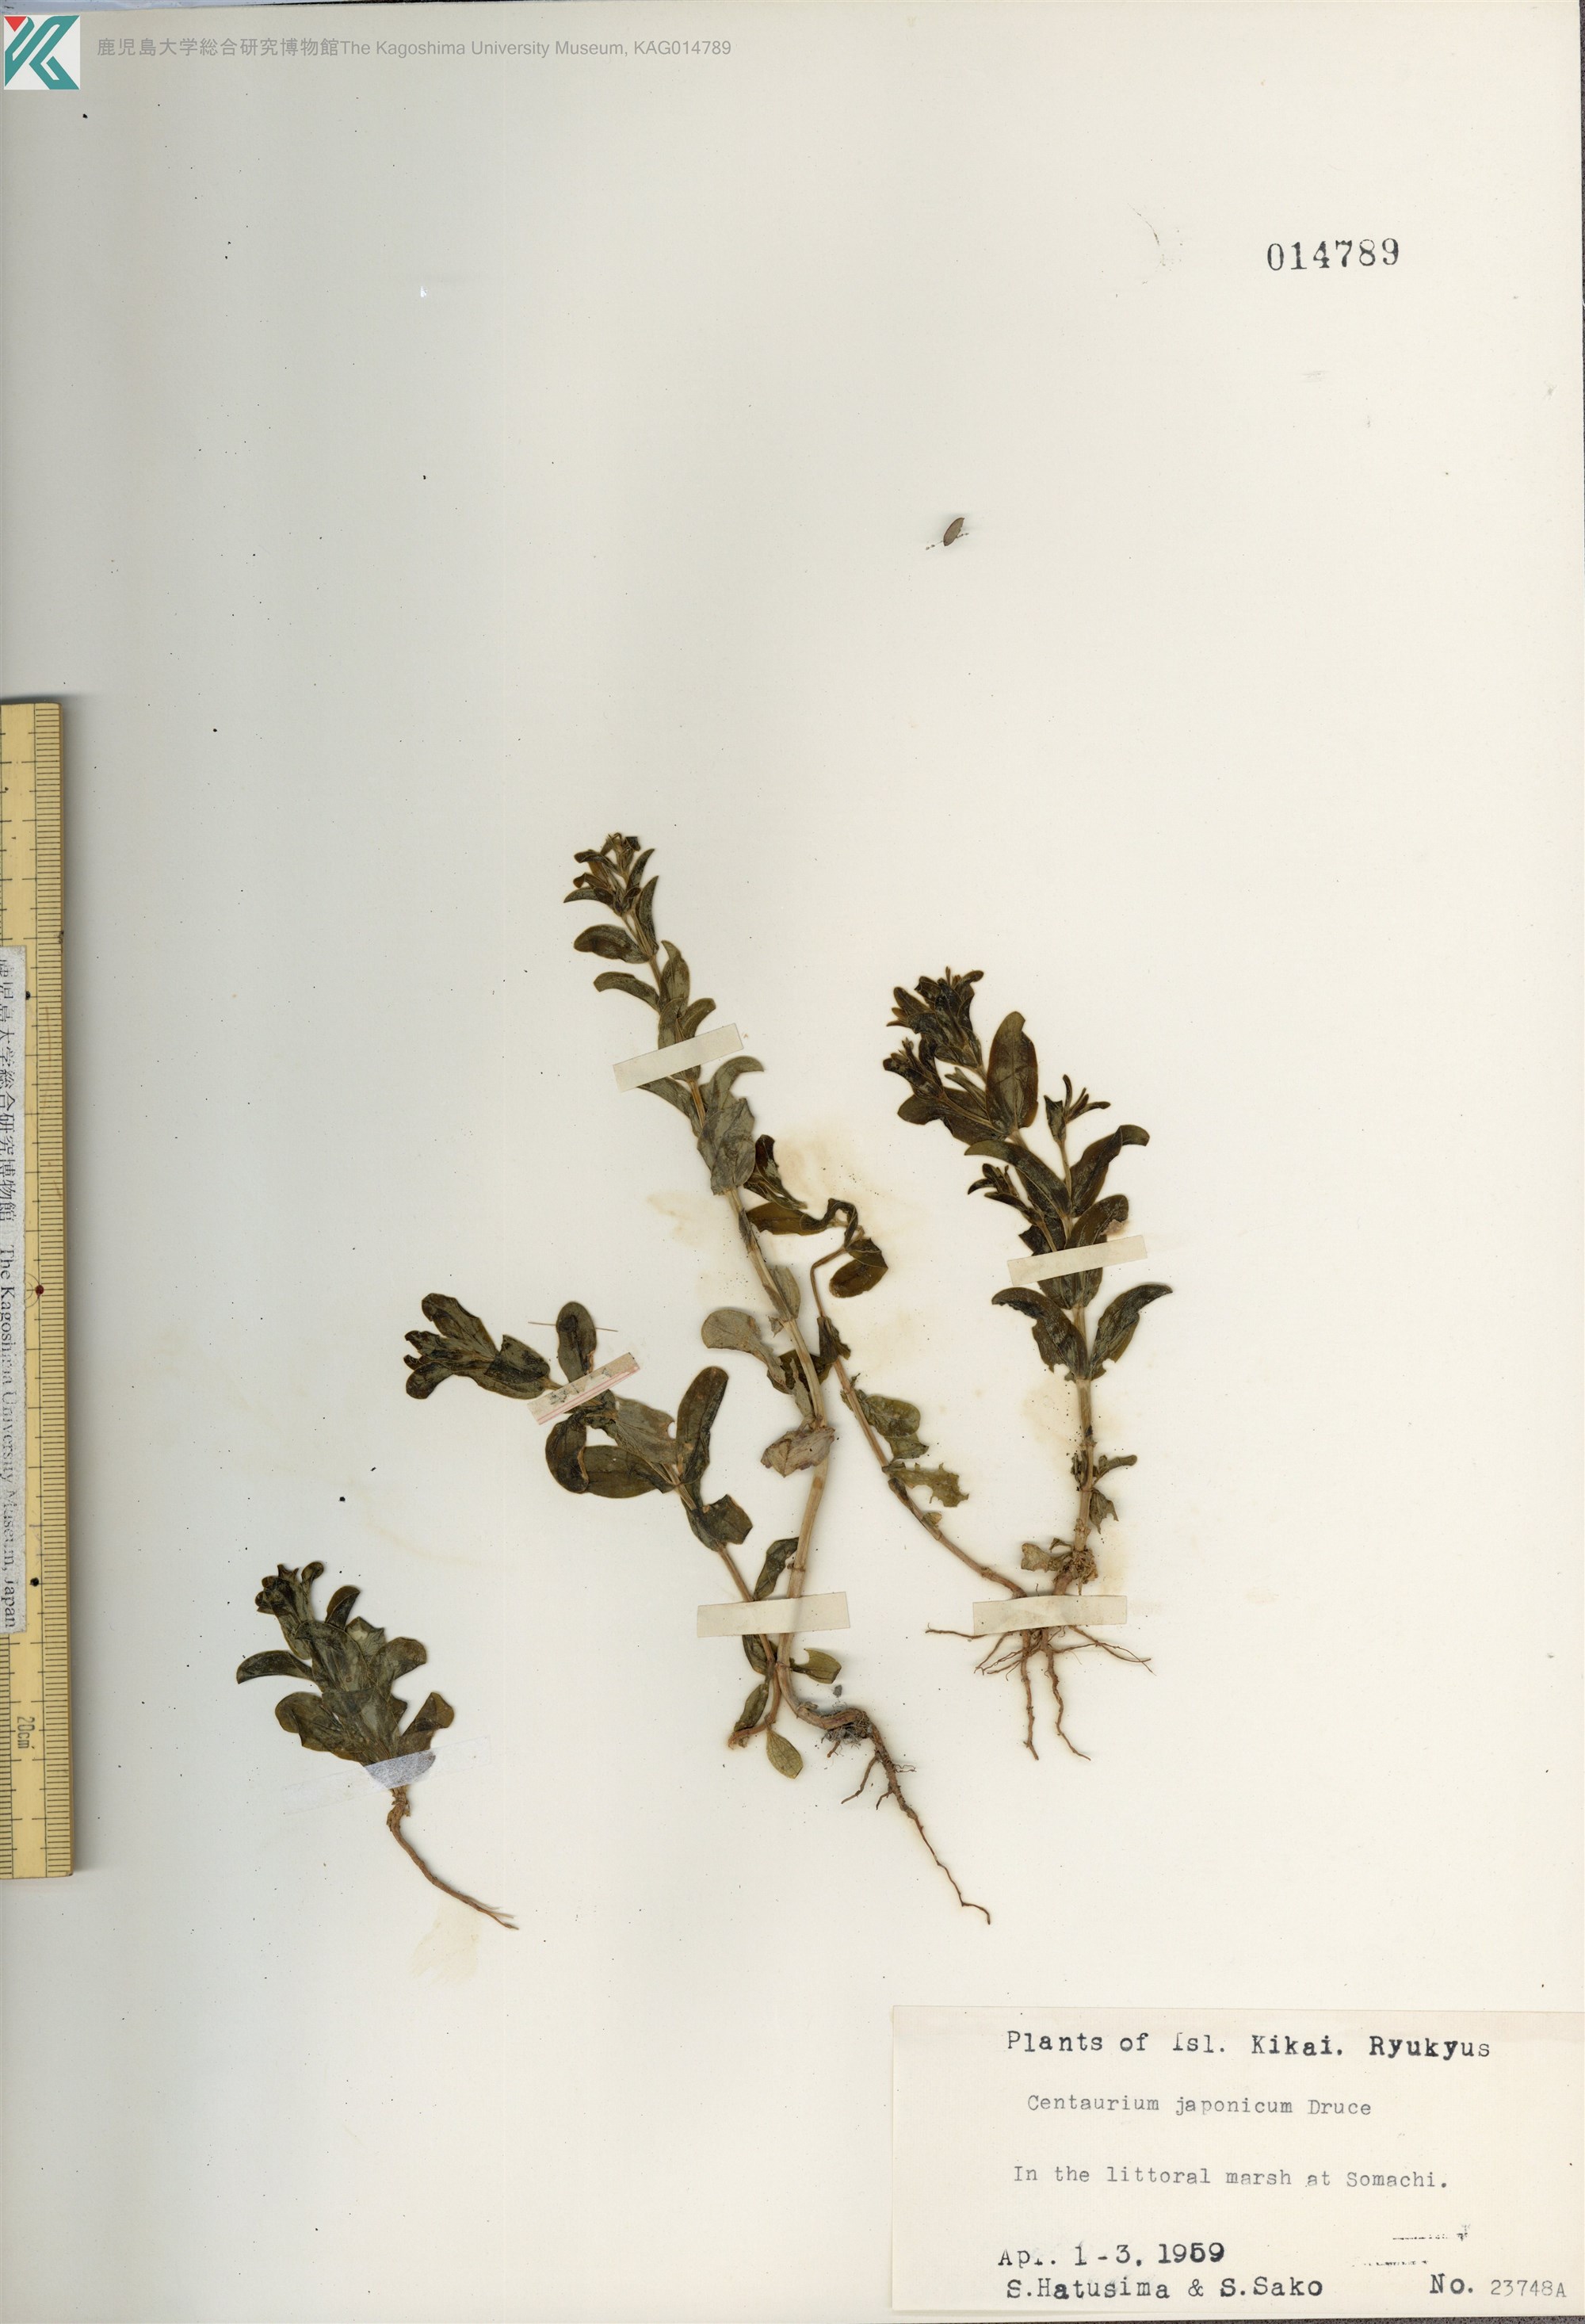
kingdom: Plantae
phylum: Tracheophyta
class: Magnoliopsida
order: Gentianales
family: Gentianaceae
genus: Schenkia
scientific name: Schenkia japonica
